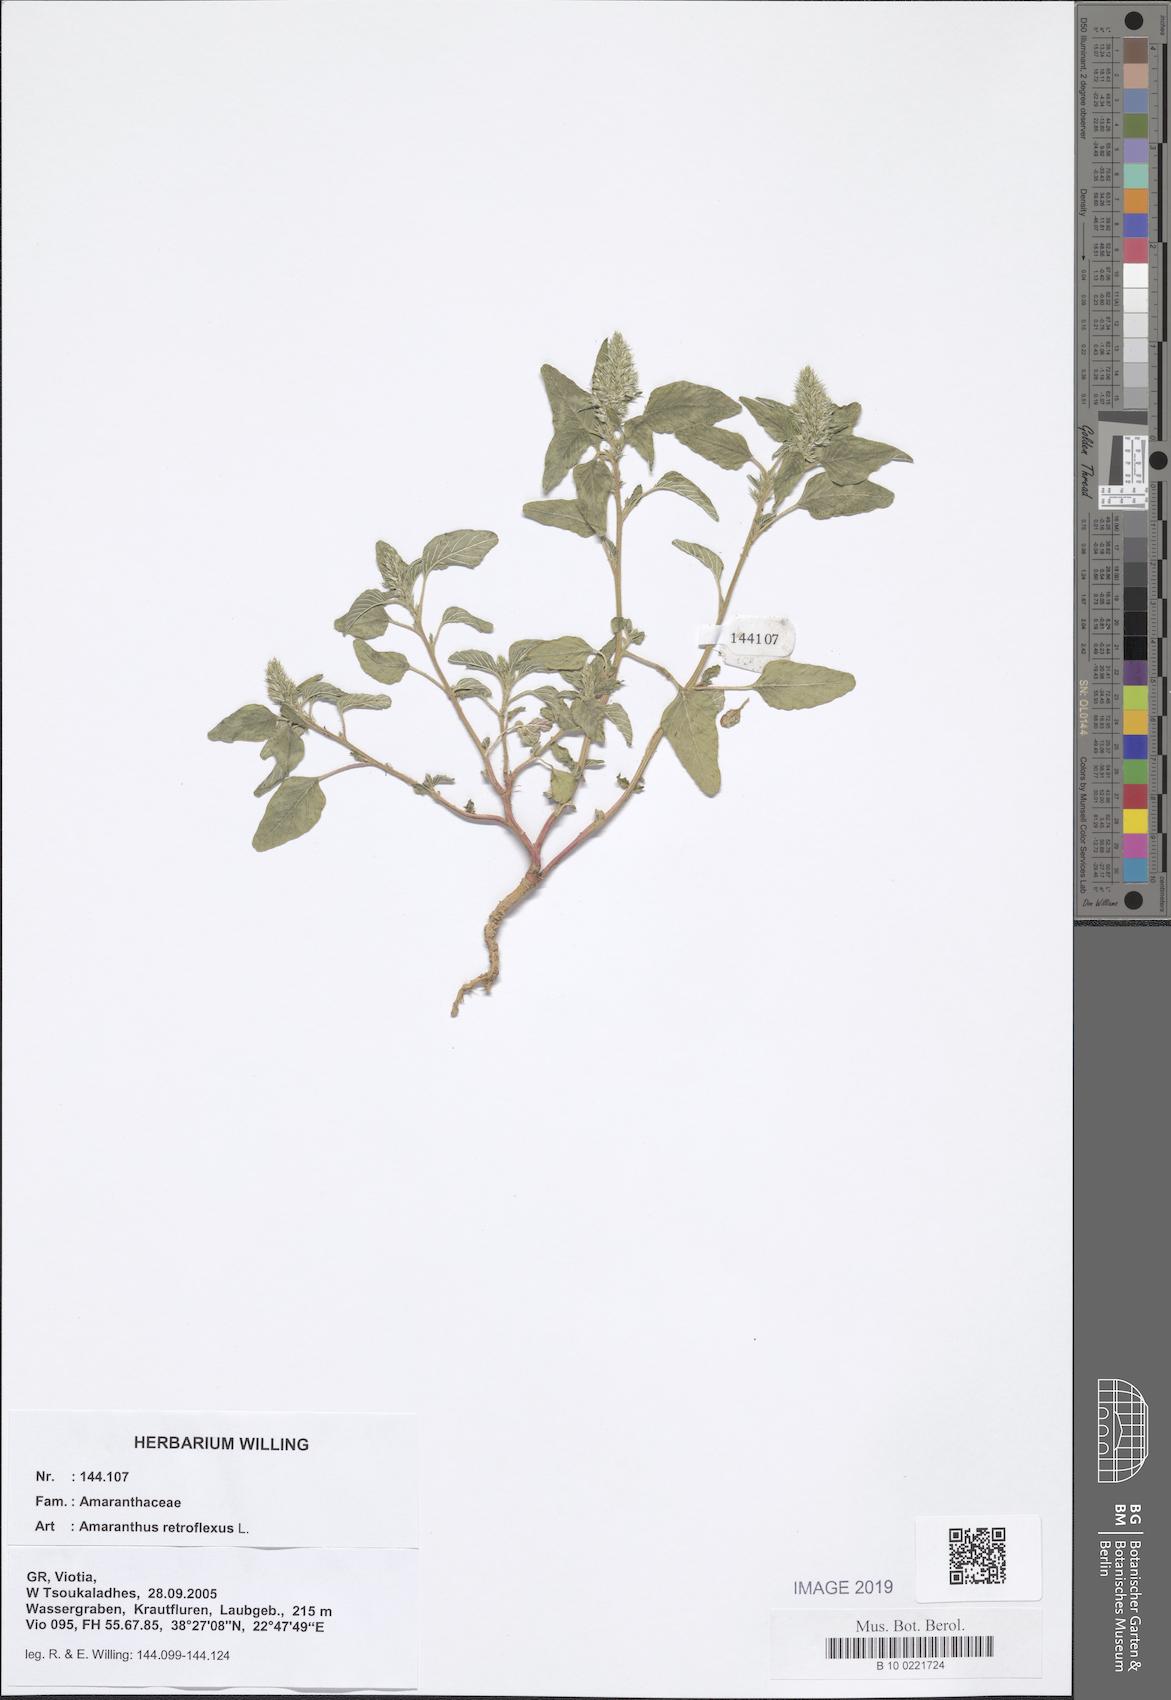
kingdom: Plantae
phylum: Tracheophyta
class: Magnoliopsida
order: Caryophyllales
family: Amaranthaceae
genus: Amaranthus
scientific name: Amaranthus retroflexus
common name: Redroot amaranth
